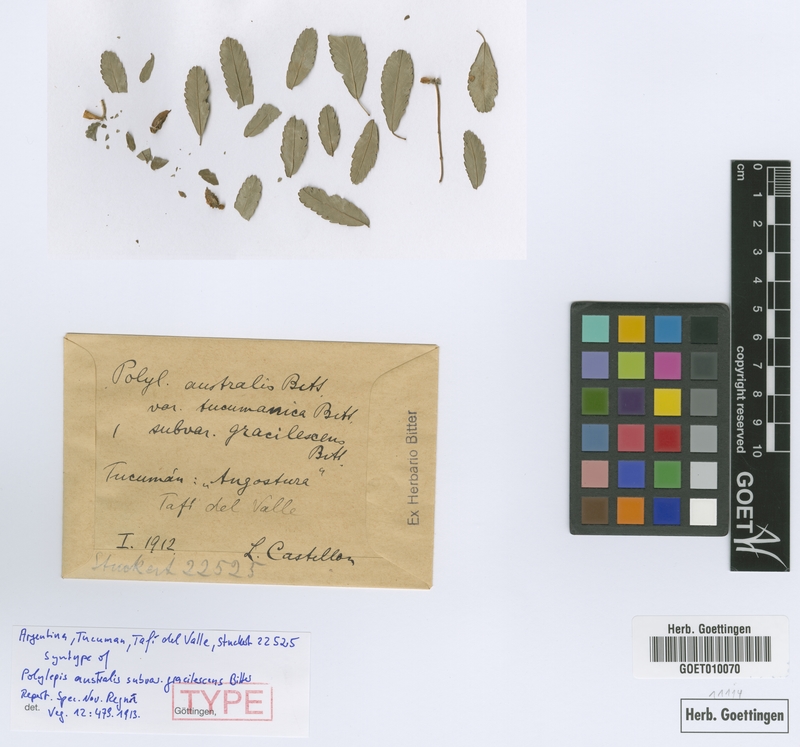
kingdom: Plantae
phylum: Tracheophyta
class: Magnoliopsida
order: Rosales
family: Rosaceae
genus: Polylepis
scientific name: Polylepis australis
